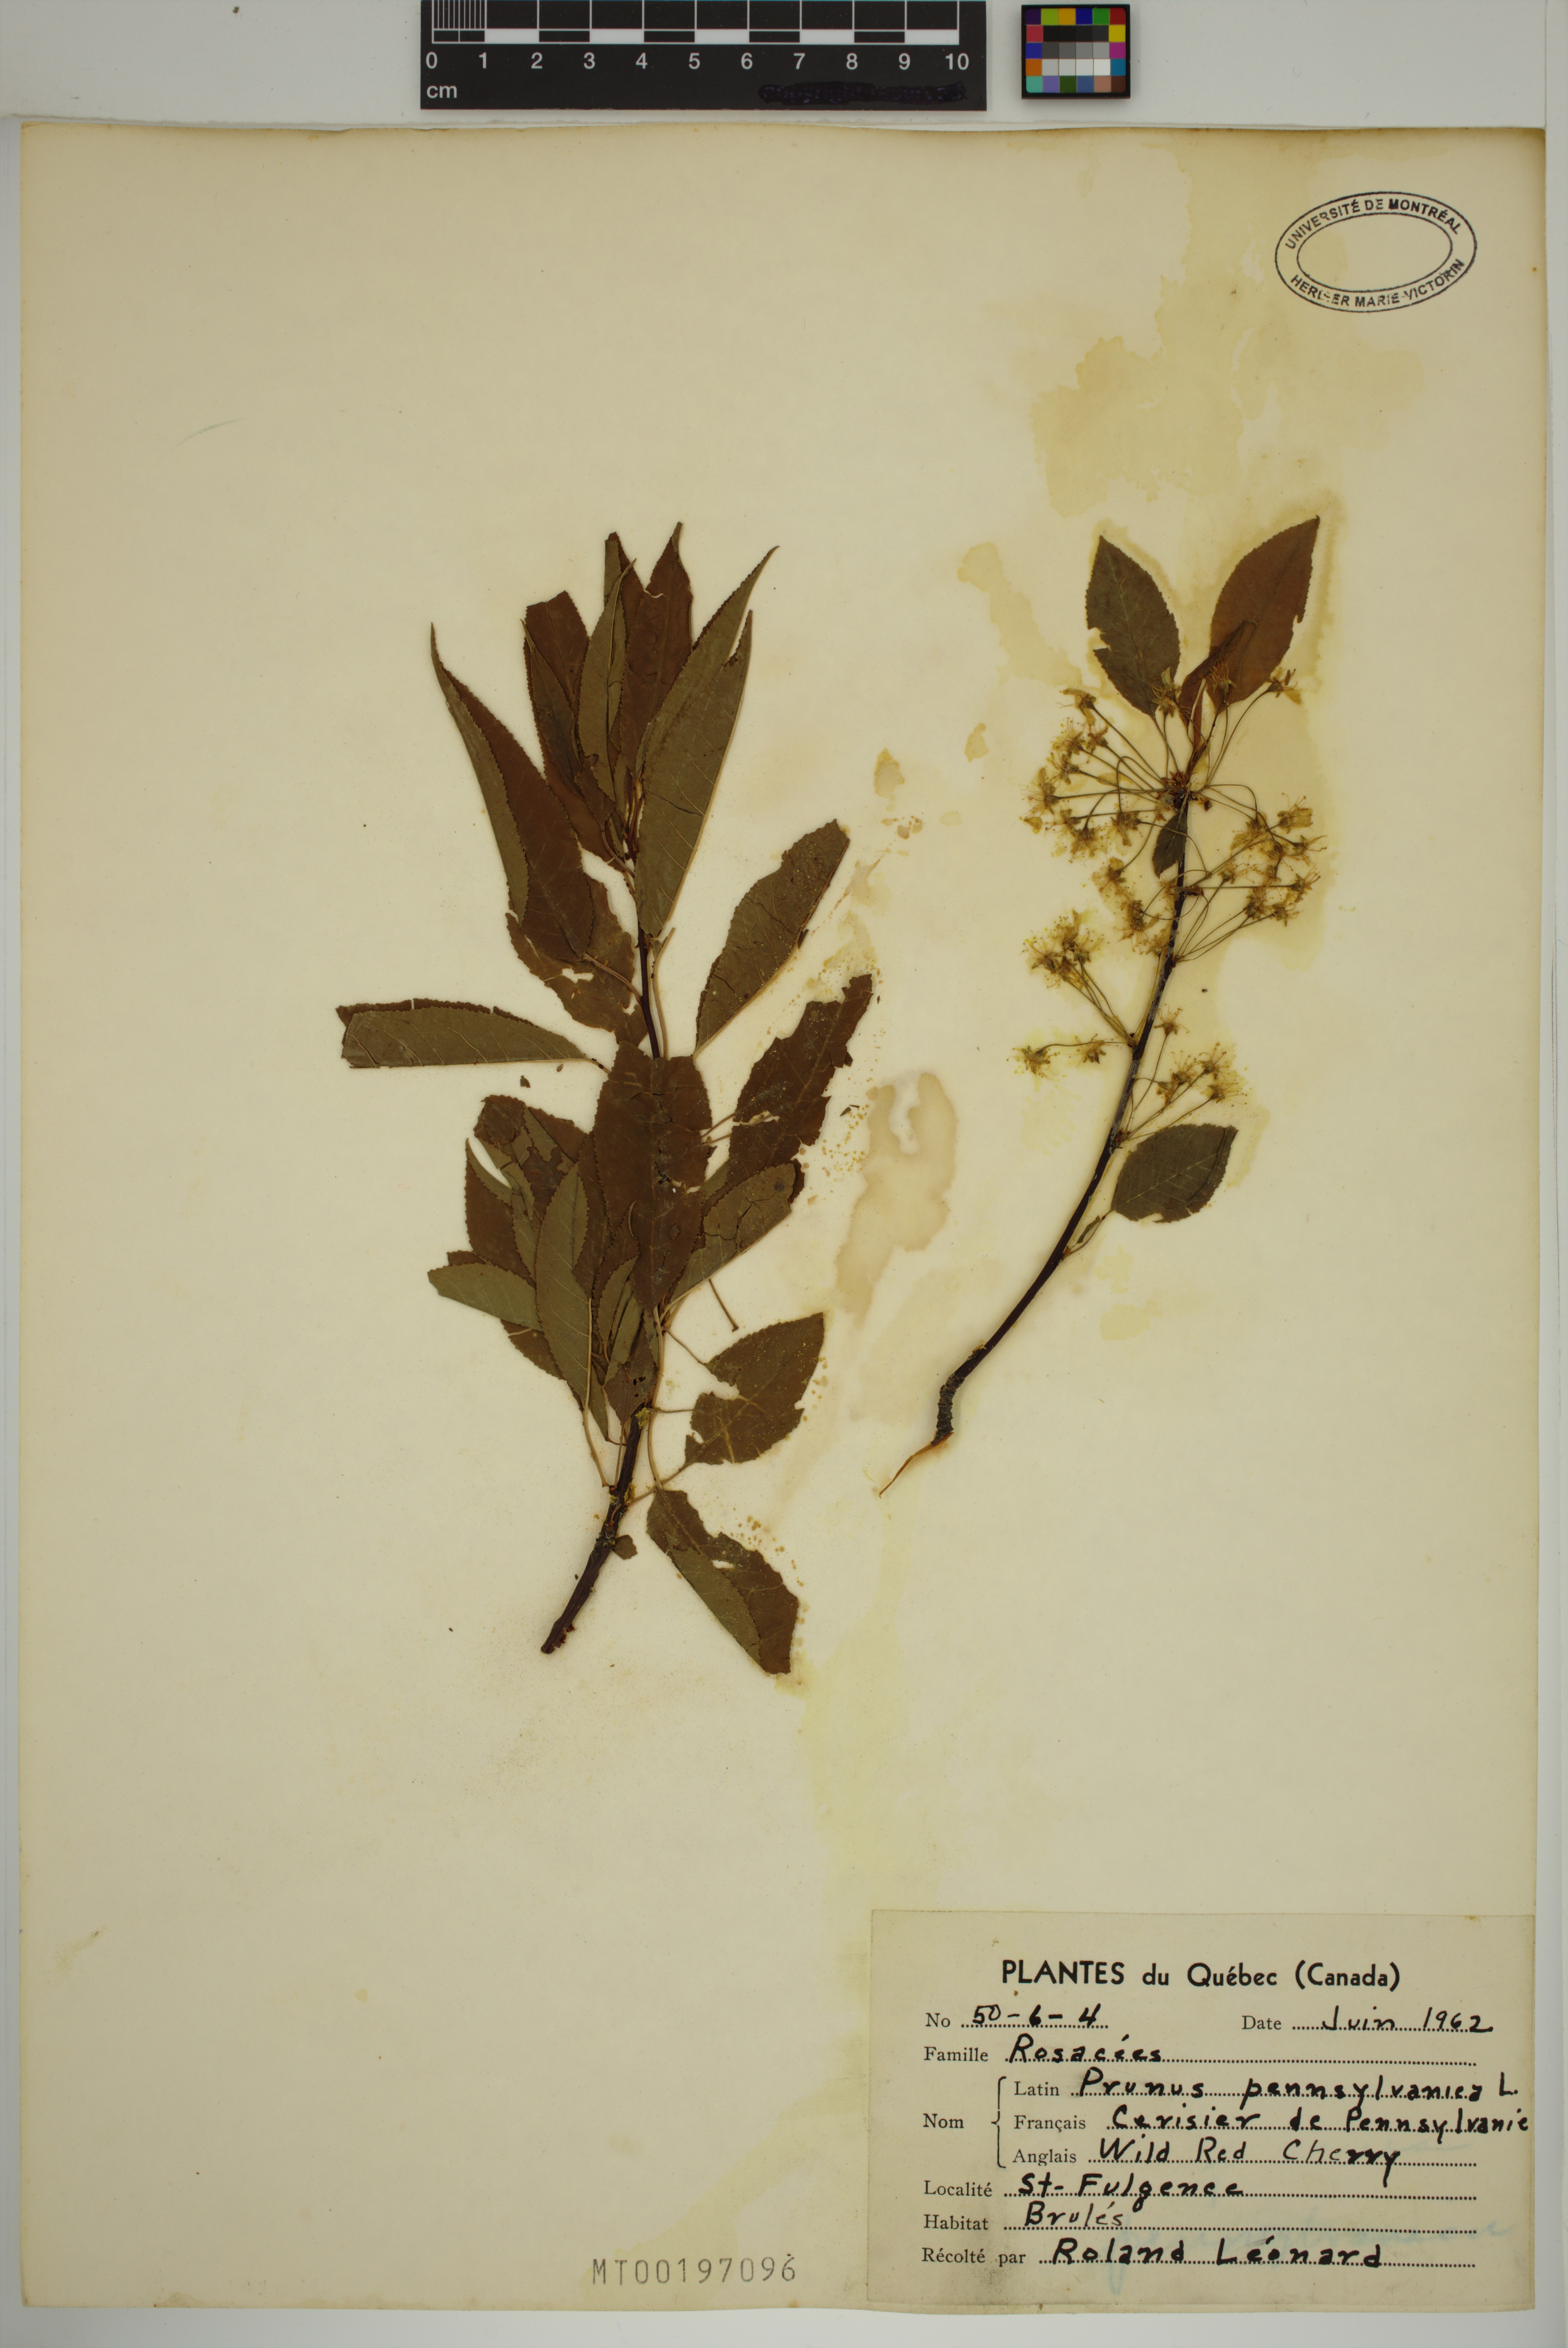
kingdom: Plantae
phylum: Tracheophyta
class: Magnoliopsida
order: Rosales
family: Rosaceae
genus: Prunus
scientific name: Prunus pensylvanica
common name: Pin cherry
